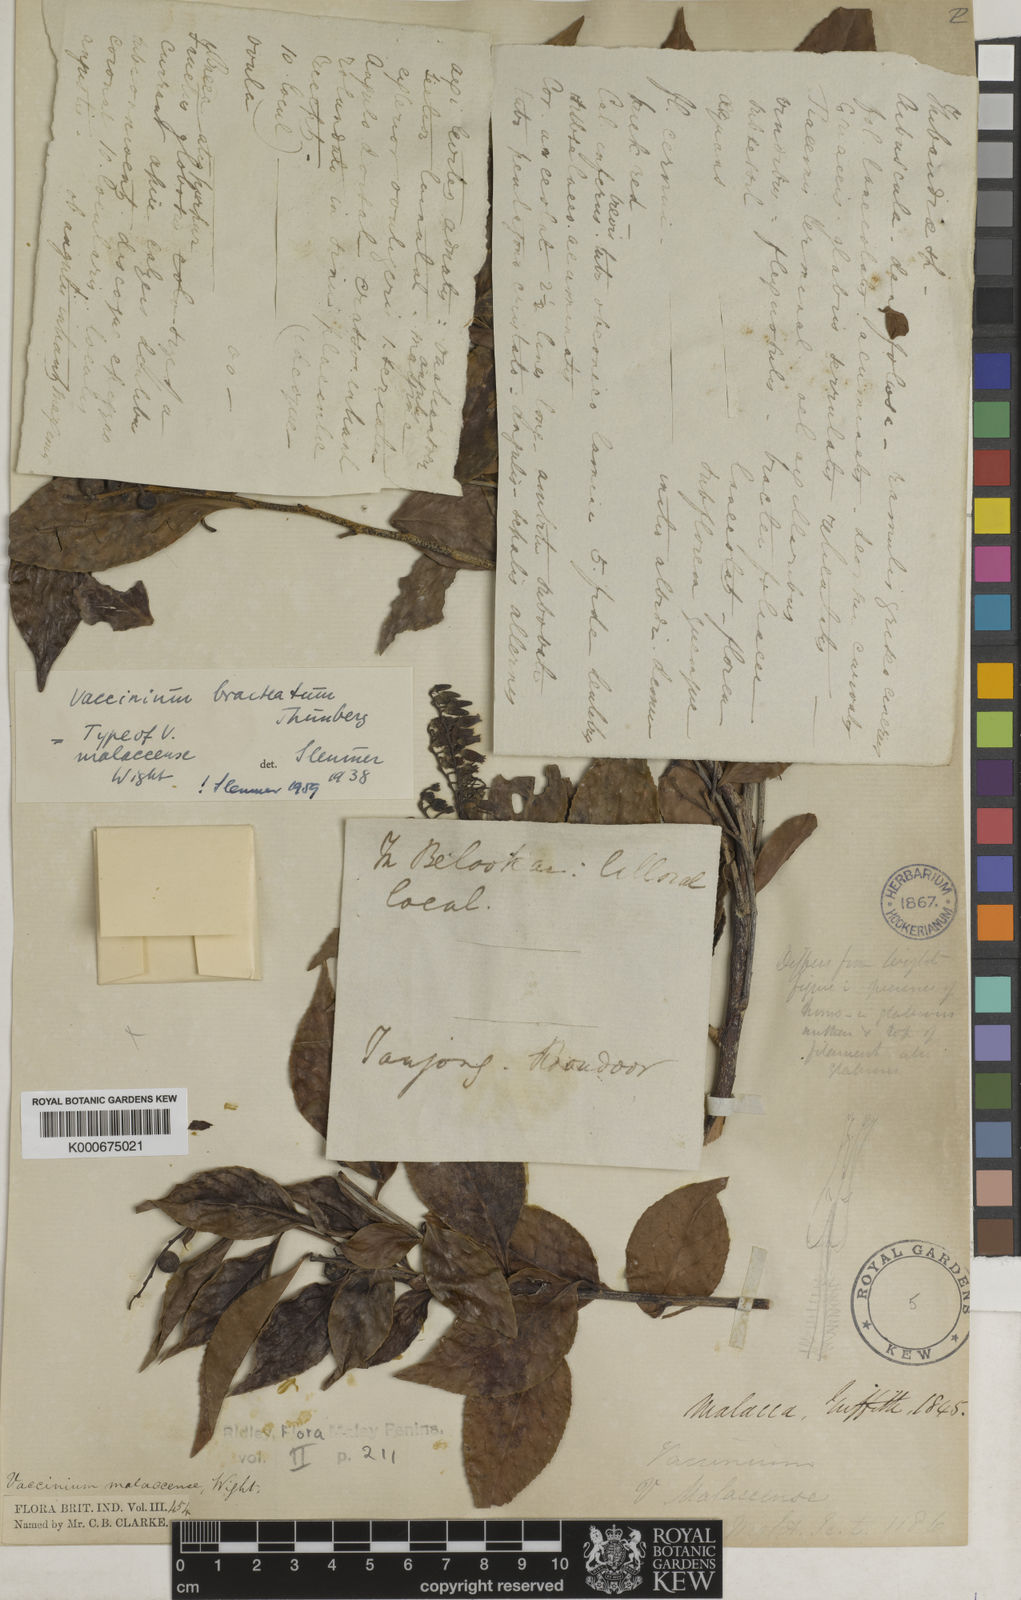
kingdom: Plantae
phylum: Tracheophyta
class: Magnoliopsida
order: Ericales
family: Ericaceae
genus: Vaccinium
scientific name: Vaccinium bracteatum
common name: Sea bilberry
